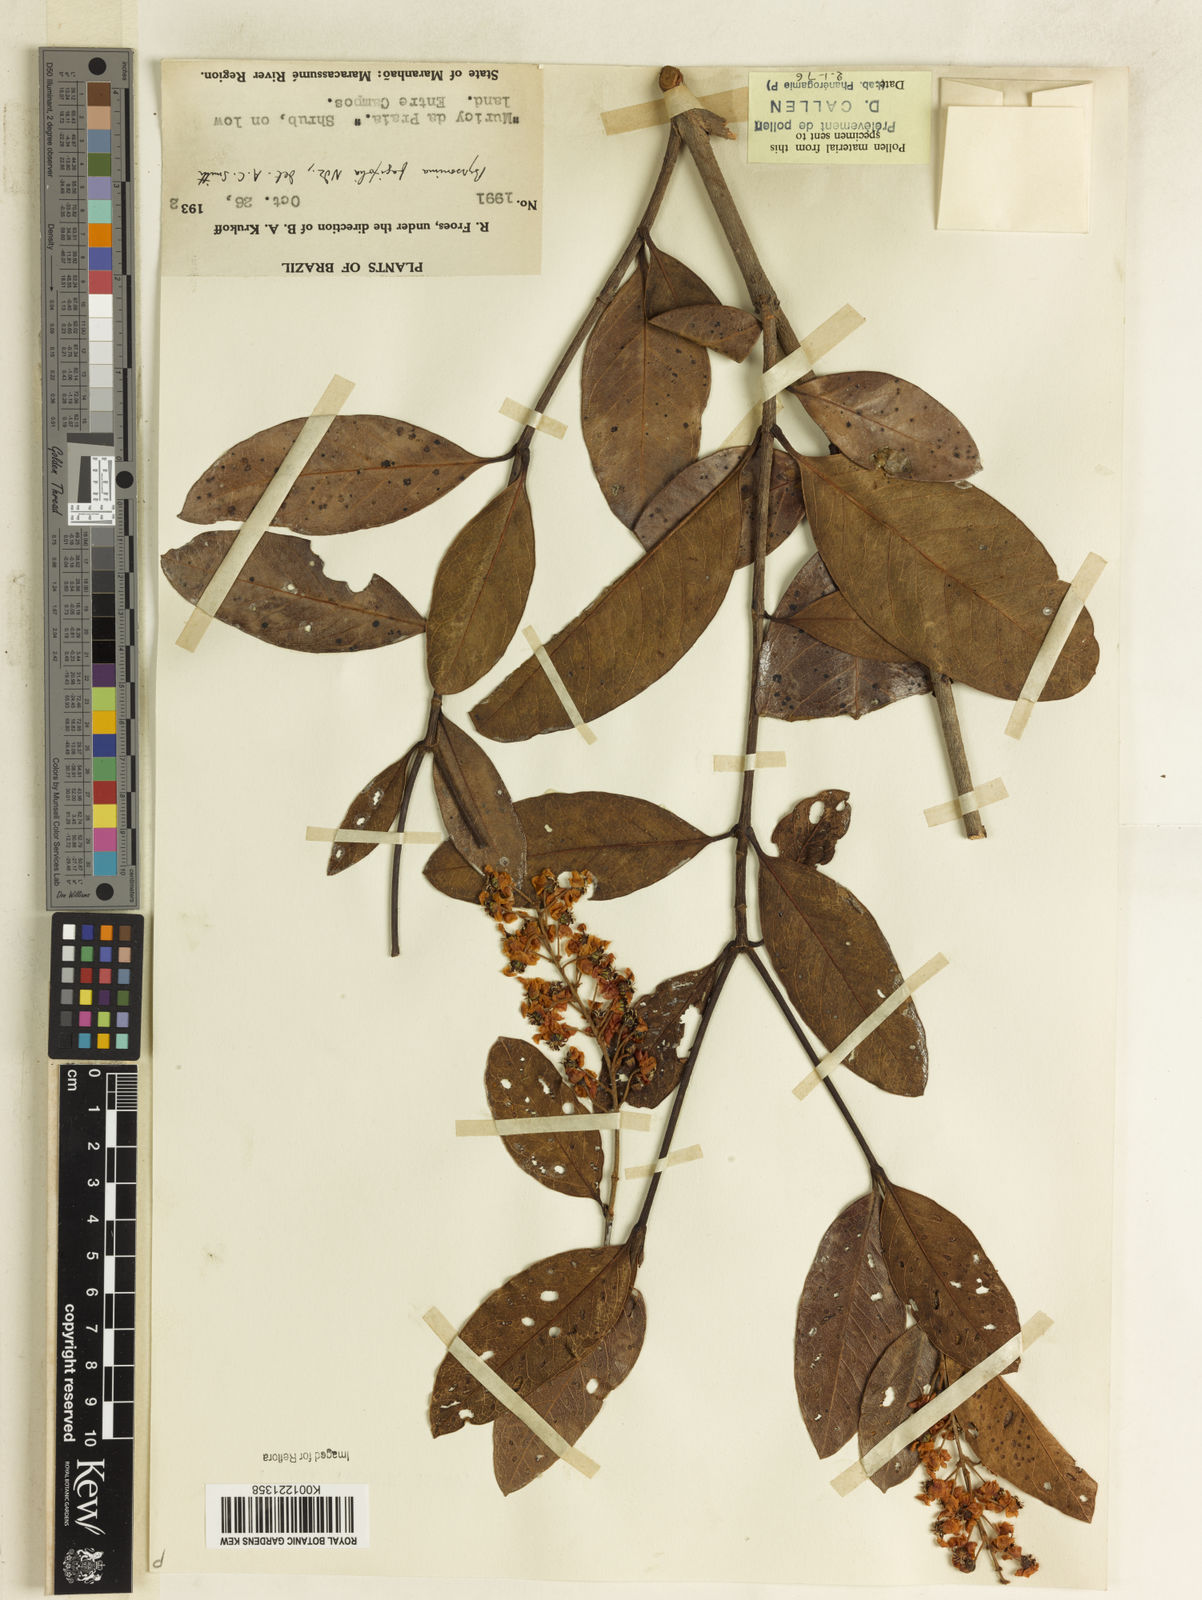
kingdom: Plantae
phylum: Tracheophyta
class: Magnoliopsida
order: Malpighiales
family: Malpighiaceae
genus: Byrsonima
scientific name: Byrsonima crassifolia
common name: Golden spoon
